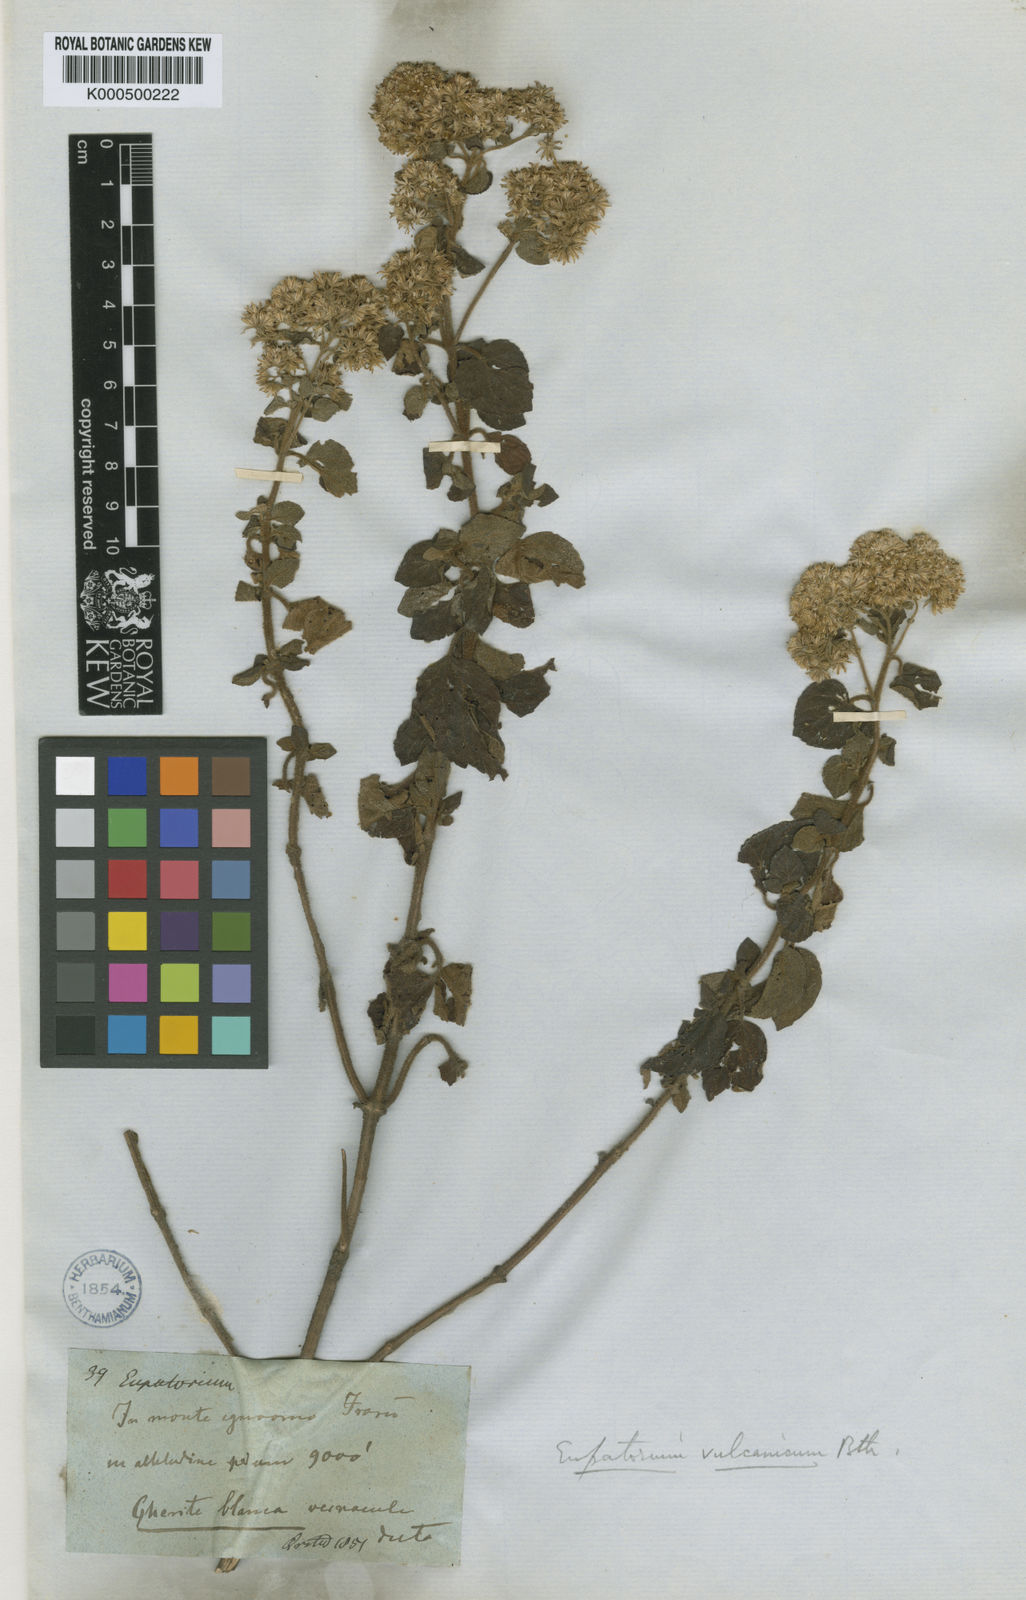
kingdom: Plantae
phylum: Tracheophyta
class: Magnoliopsida
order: Asterales
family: Asteraceae
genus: Ageratina
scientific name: Ageratina pichinchensis
